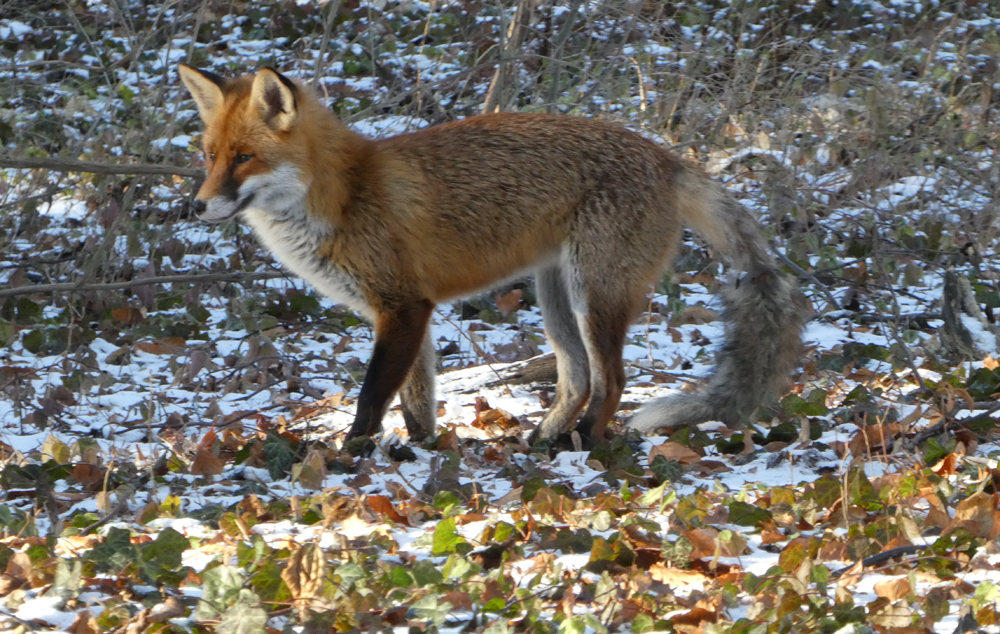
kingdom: Animalia
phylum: Chordata
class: Mammalia
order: Carnivora
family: Canidae
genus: Vulpes
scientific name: Vulpes vulpes
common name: Red fox
